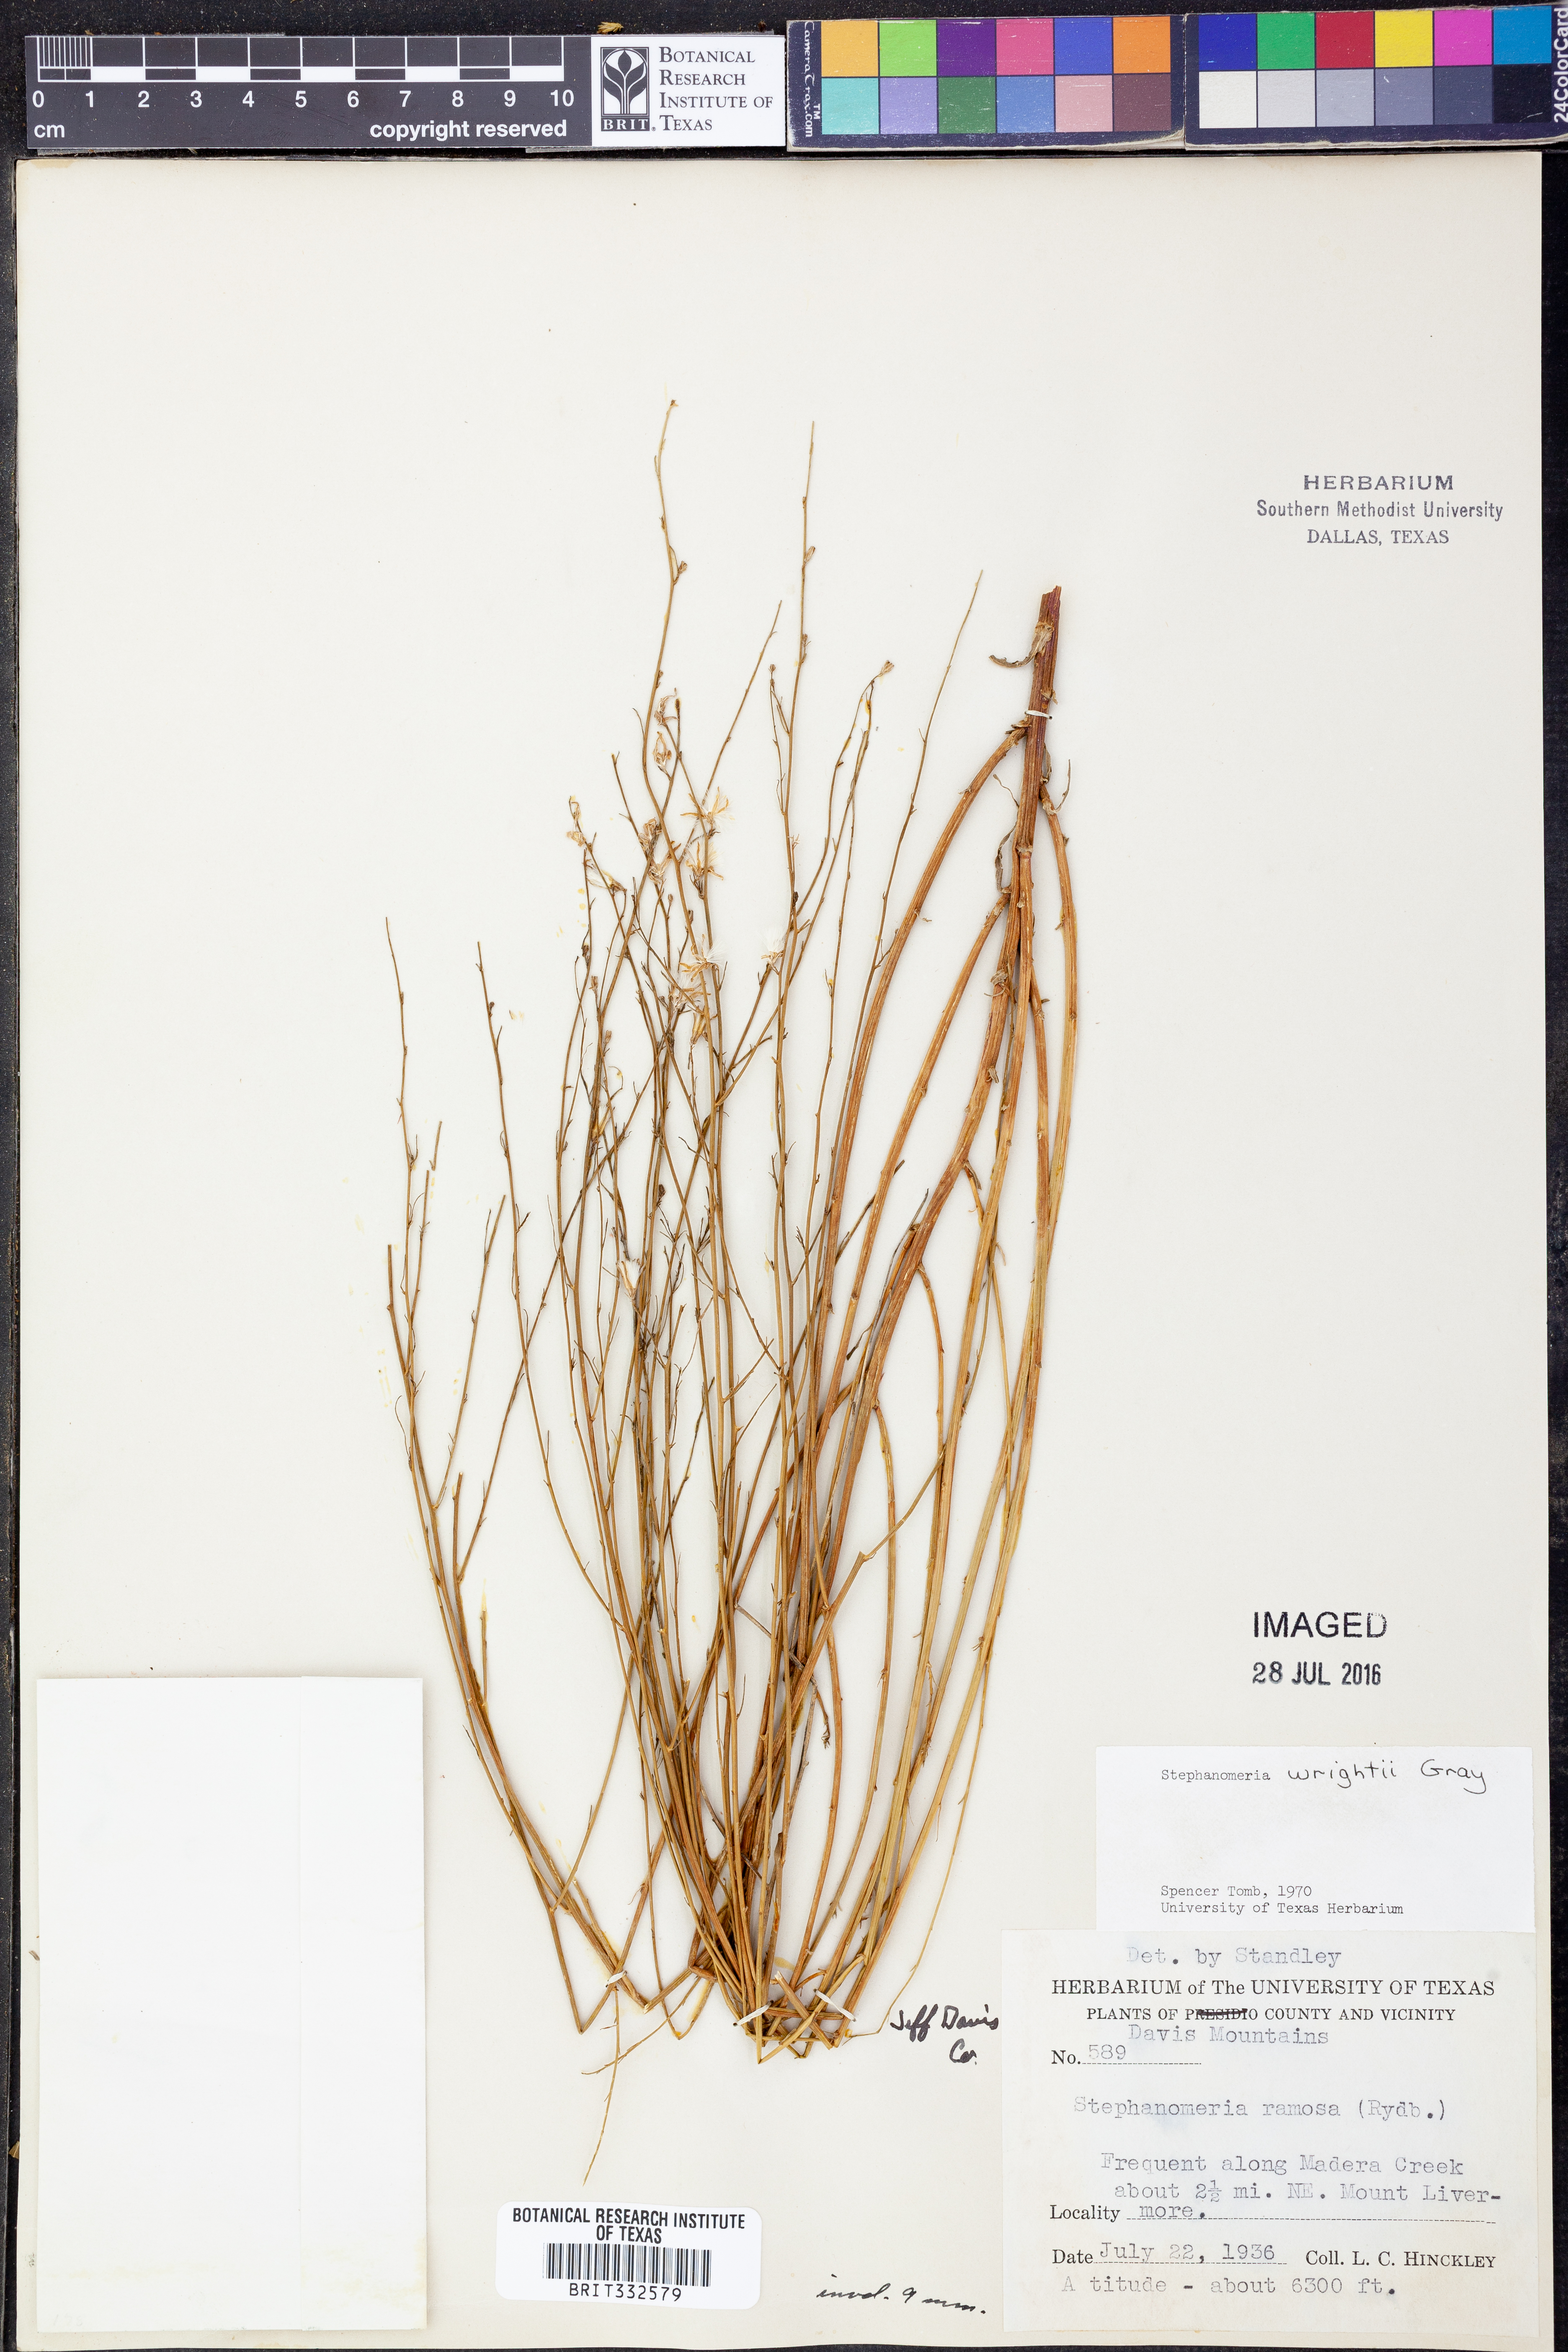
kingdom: Plantae
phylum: Tracheophyta
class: Magnoliopsida
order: Asterales
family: Asteraceae
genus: Stephanomeria
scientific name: Stephanomeria tenuifolia
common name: Slender wirelettuce
